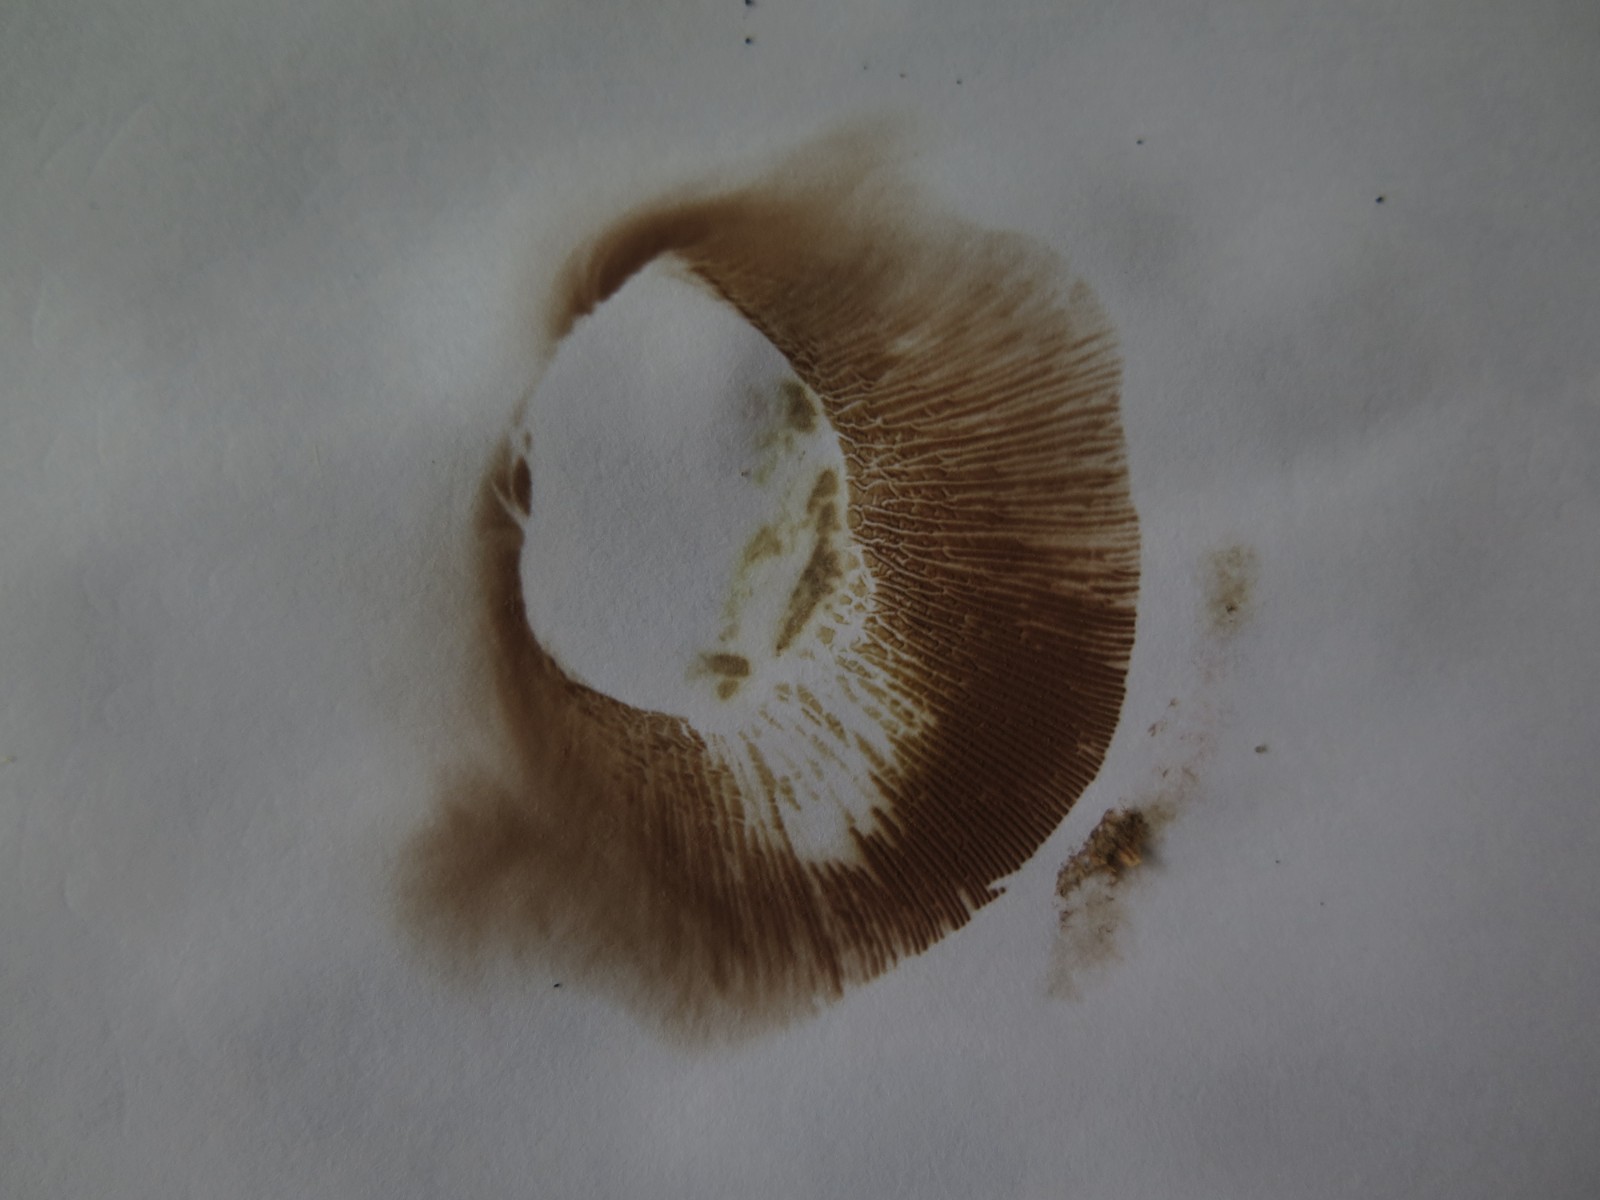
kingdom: Fungi
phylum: Basidiomycota
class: Agaricomycetes
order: Boletales
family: Paxillaceae
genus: Paxillus
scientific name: Paxillus involutus
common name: almindelig netbladhat
